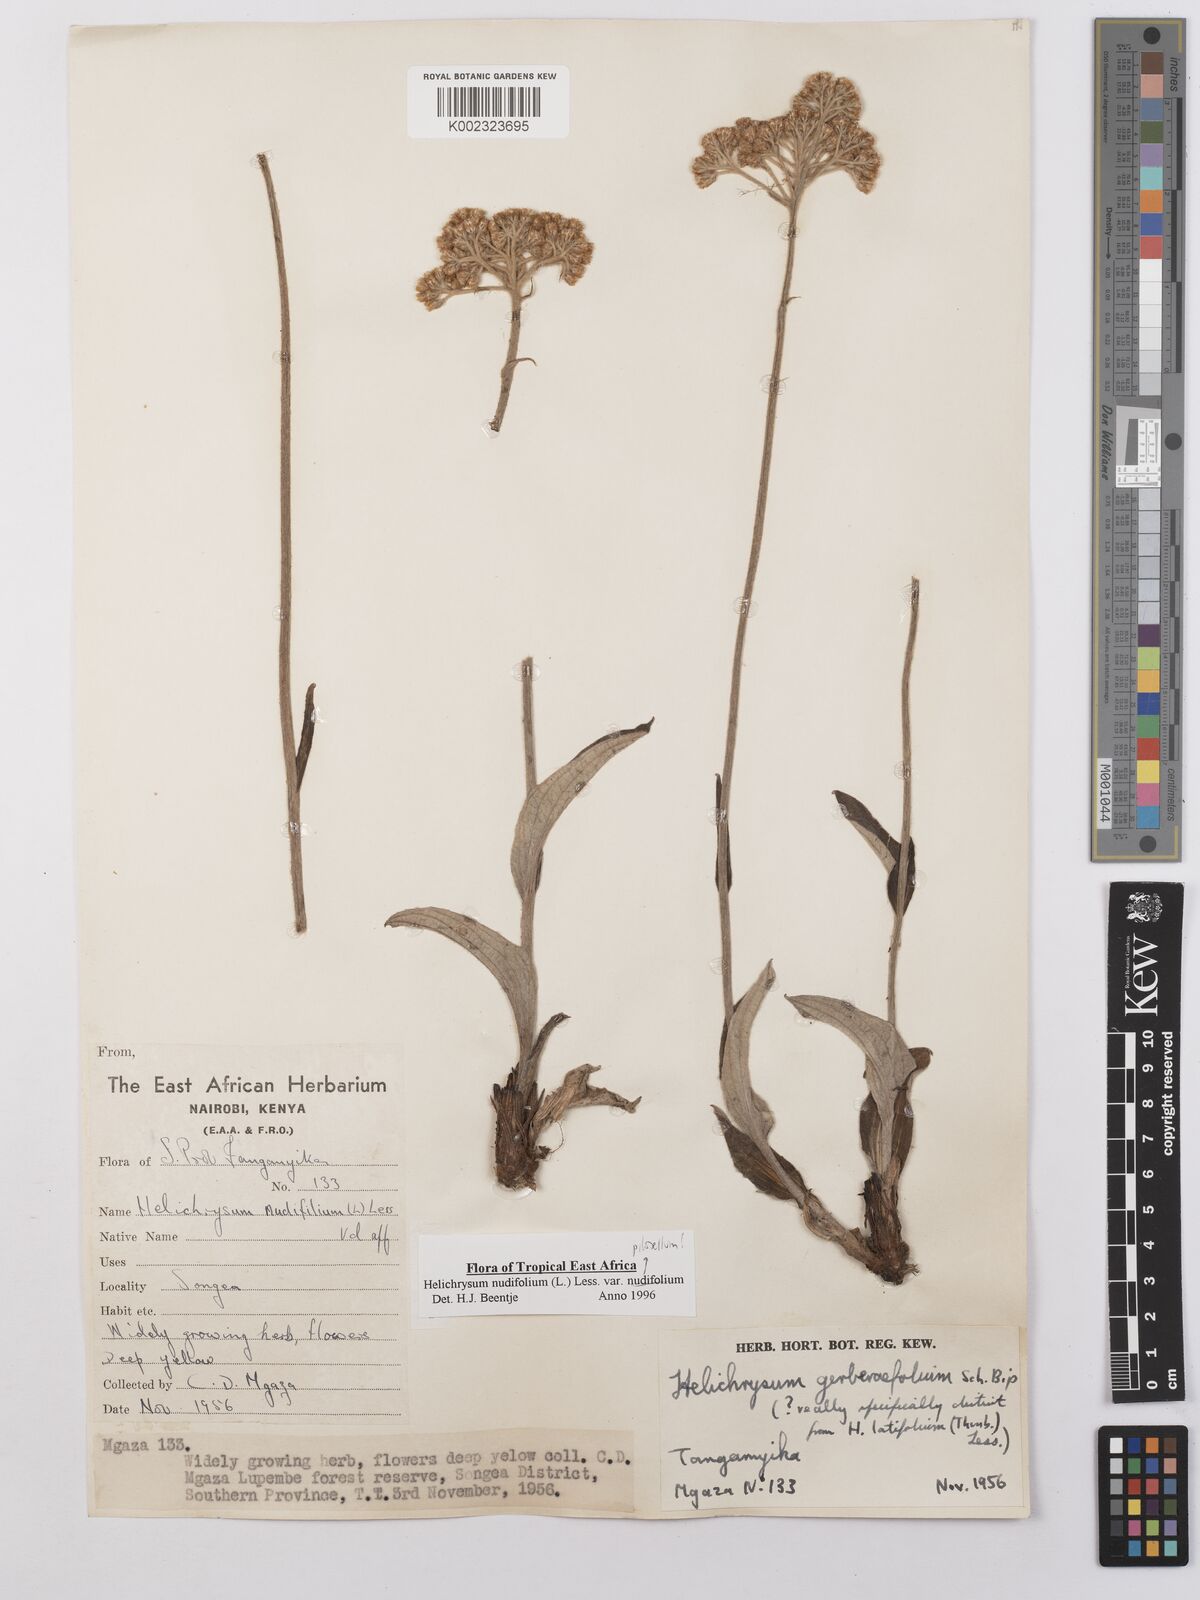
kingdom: Plantae
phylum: Tracheophyta
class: Magnoliopsida
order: Asterales
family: Asteraceae
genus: Helichrysum
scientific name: Helichrysum nudifolium
